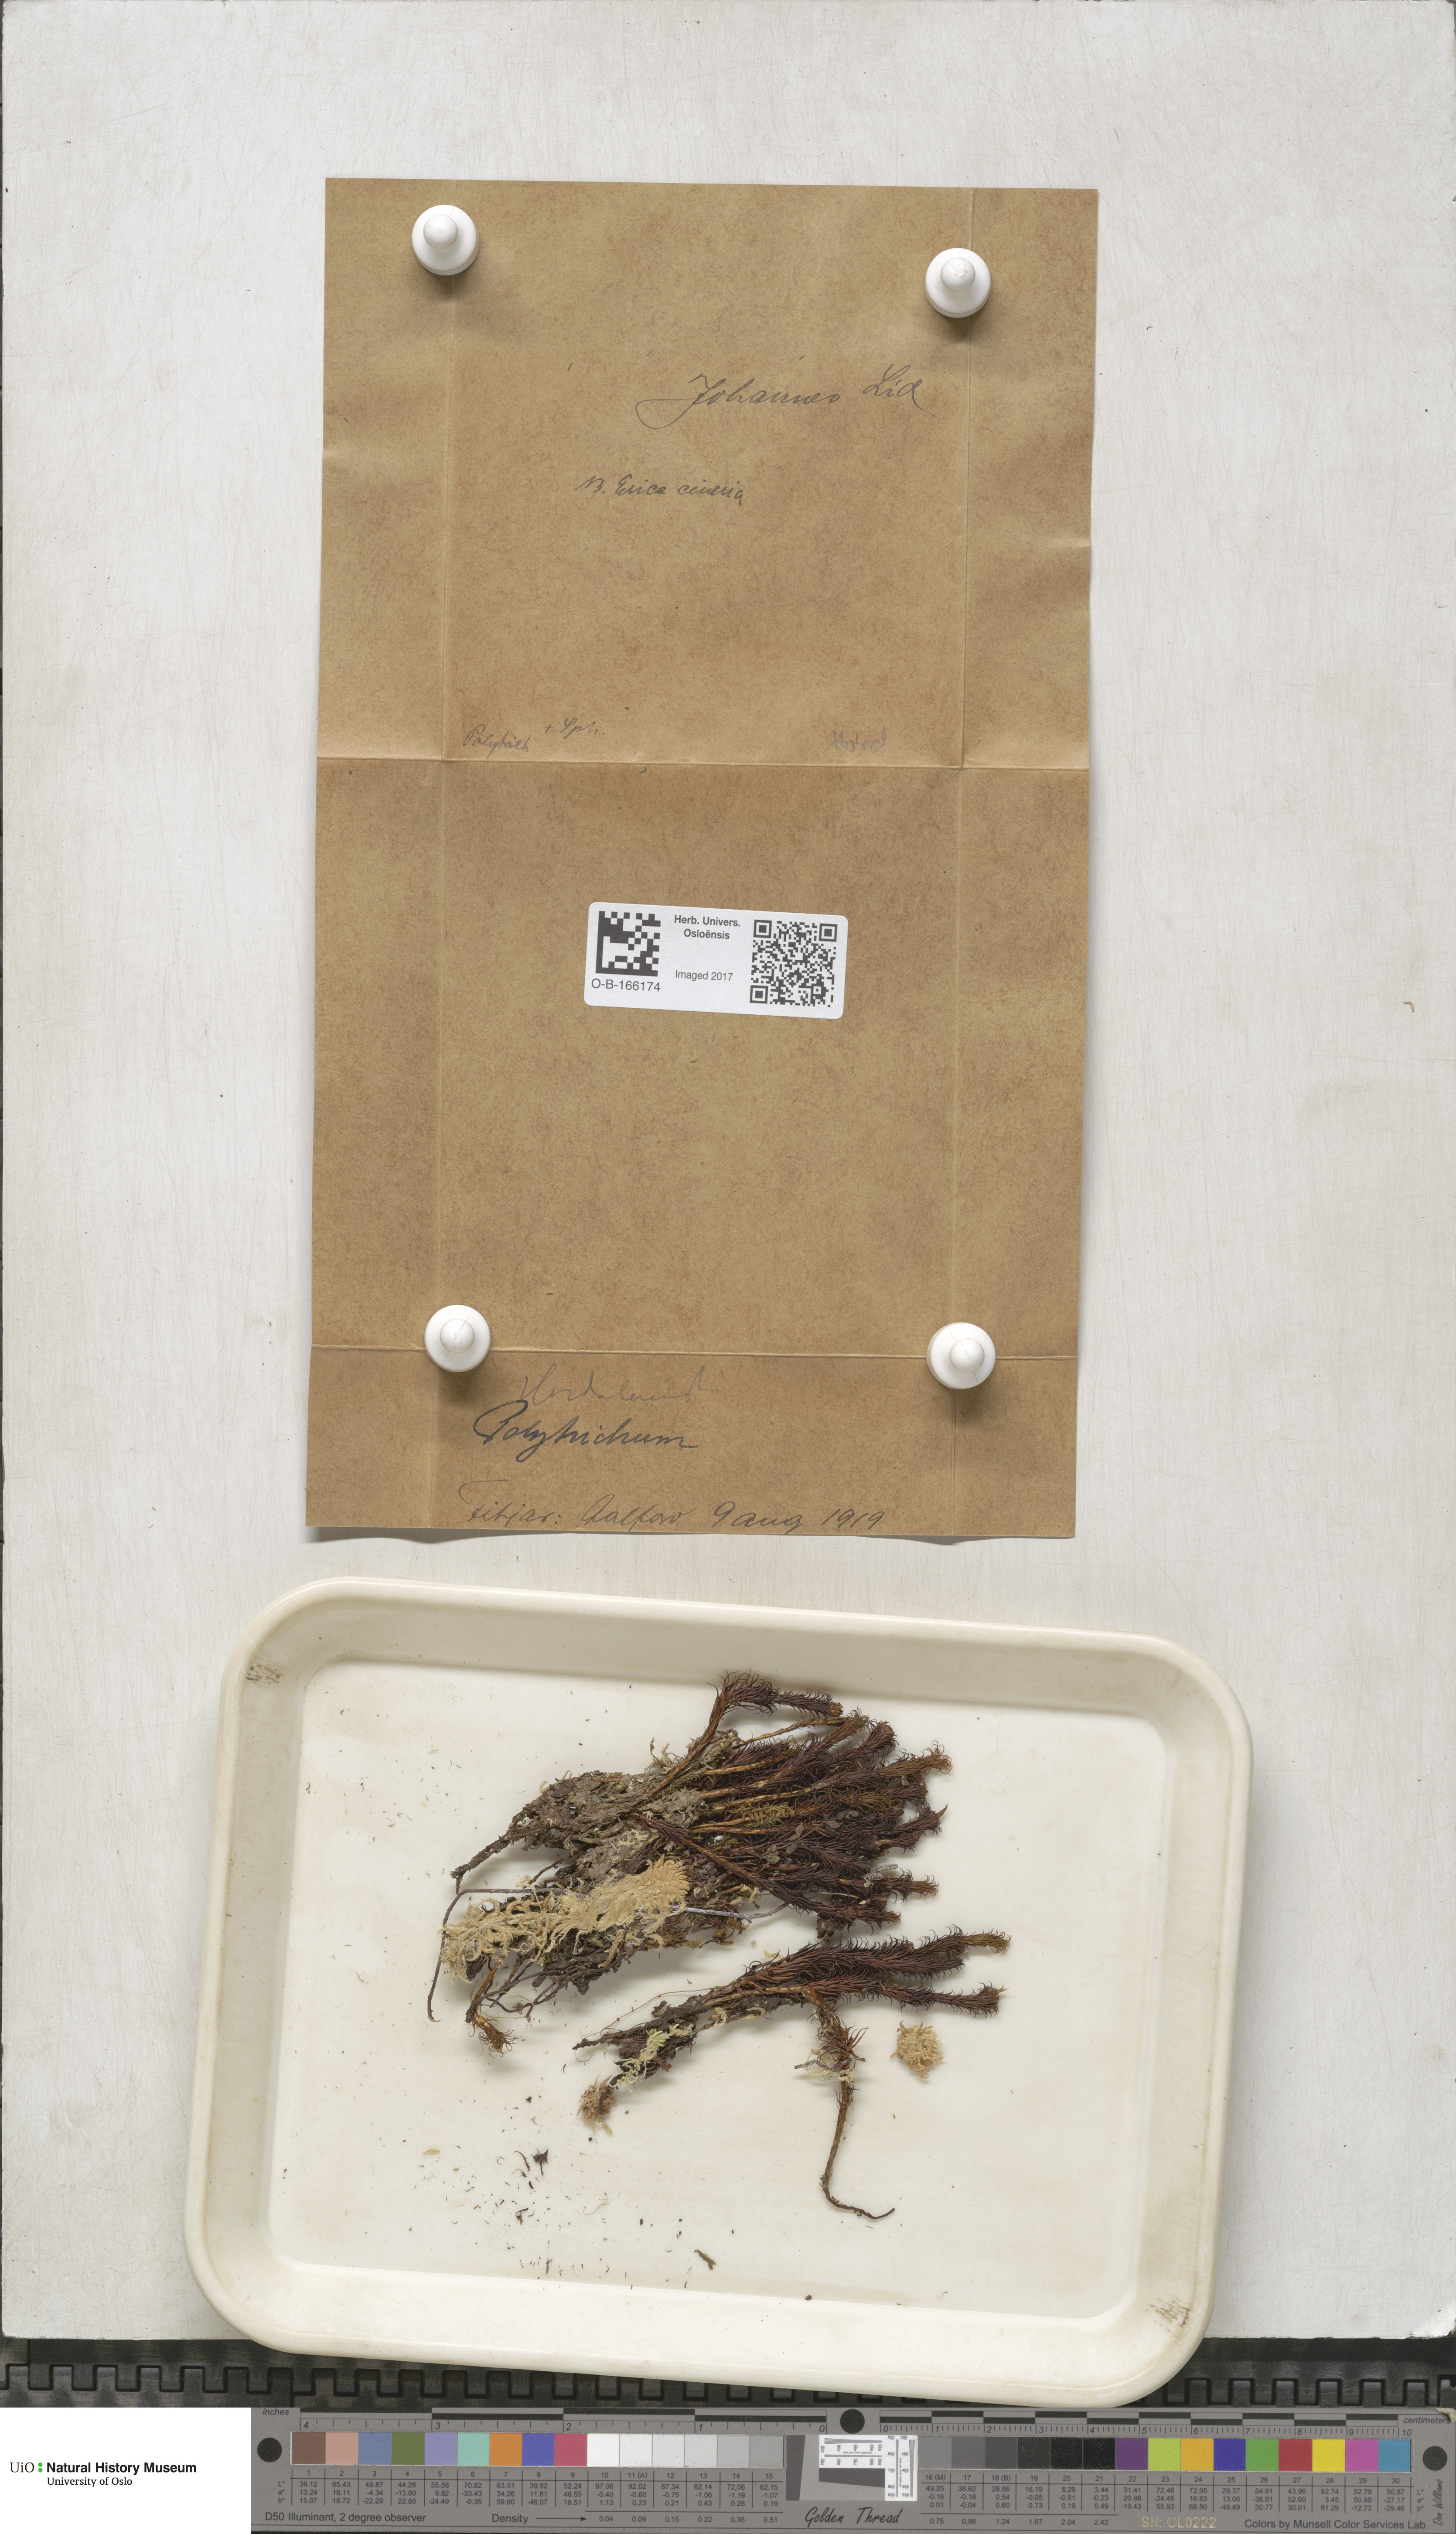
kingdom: Plantae
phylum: Bryophyta
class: Polytrichopsida
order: Polytrichales
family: Polytrichaceae
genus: Polytrichum
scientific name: Polytrichum
